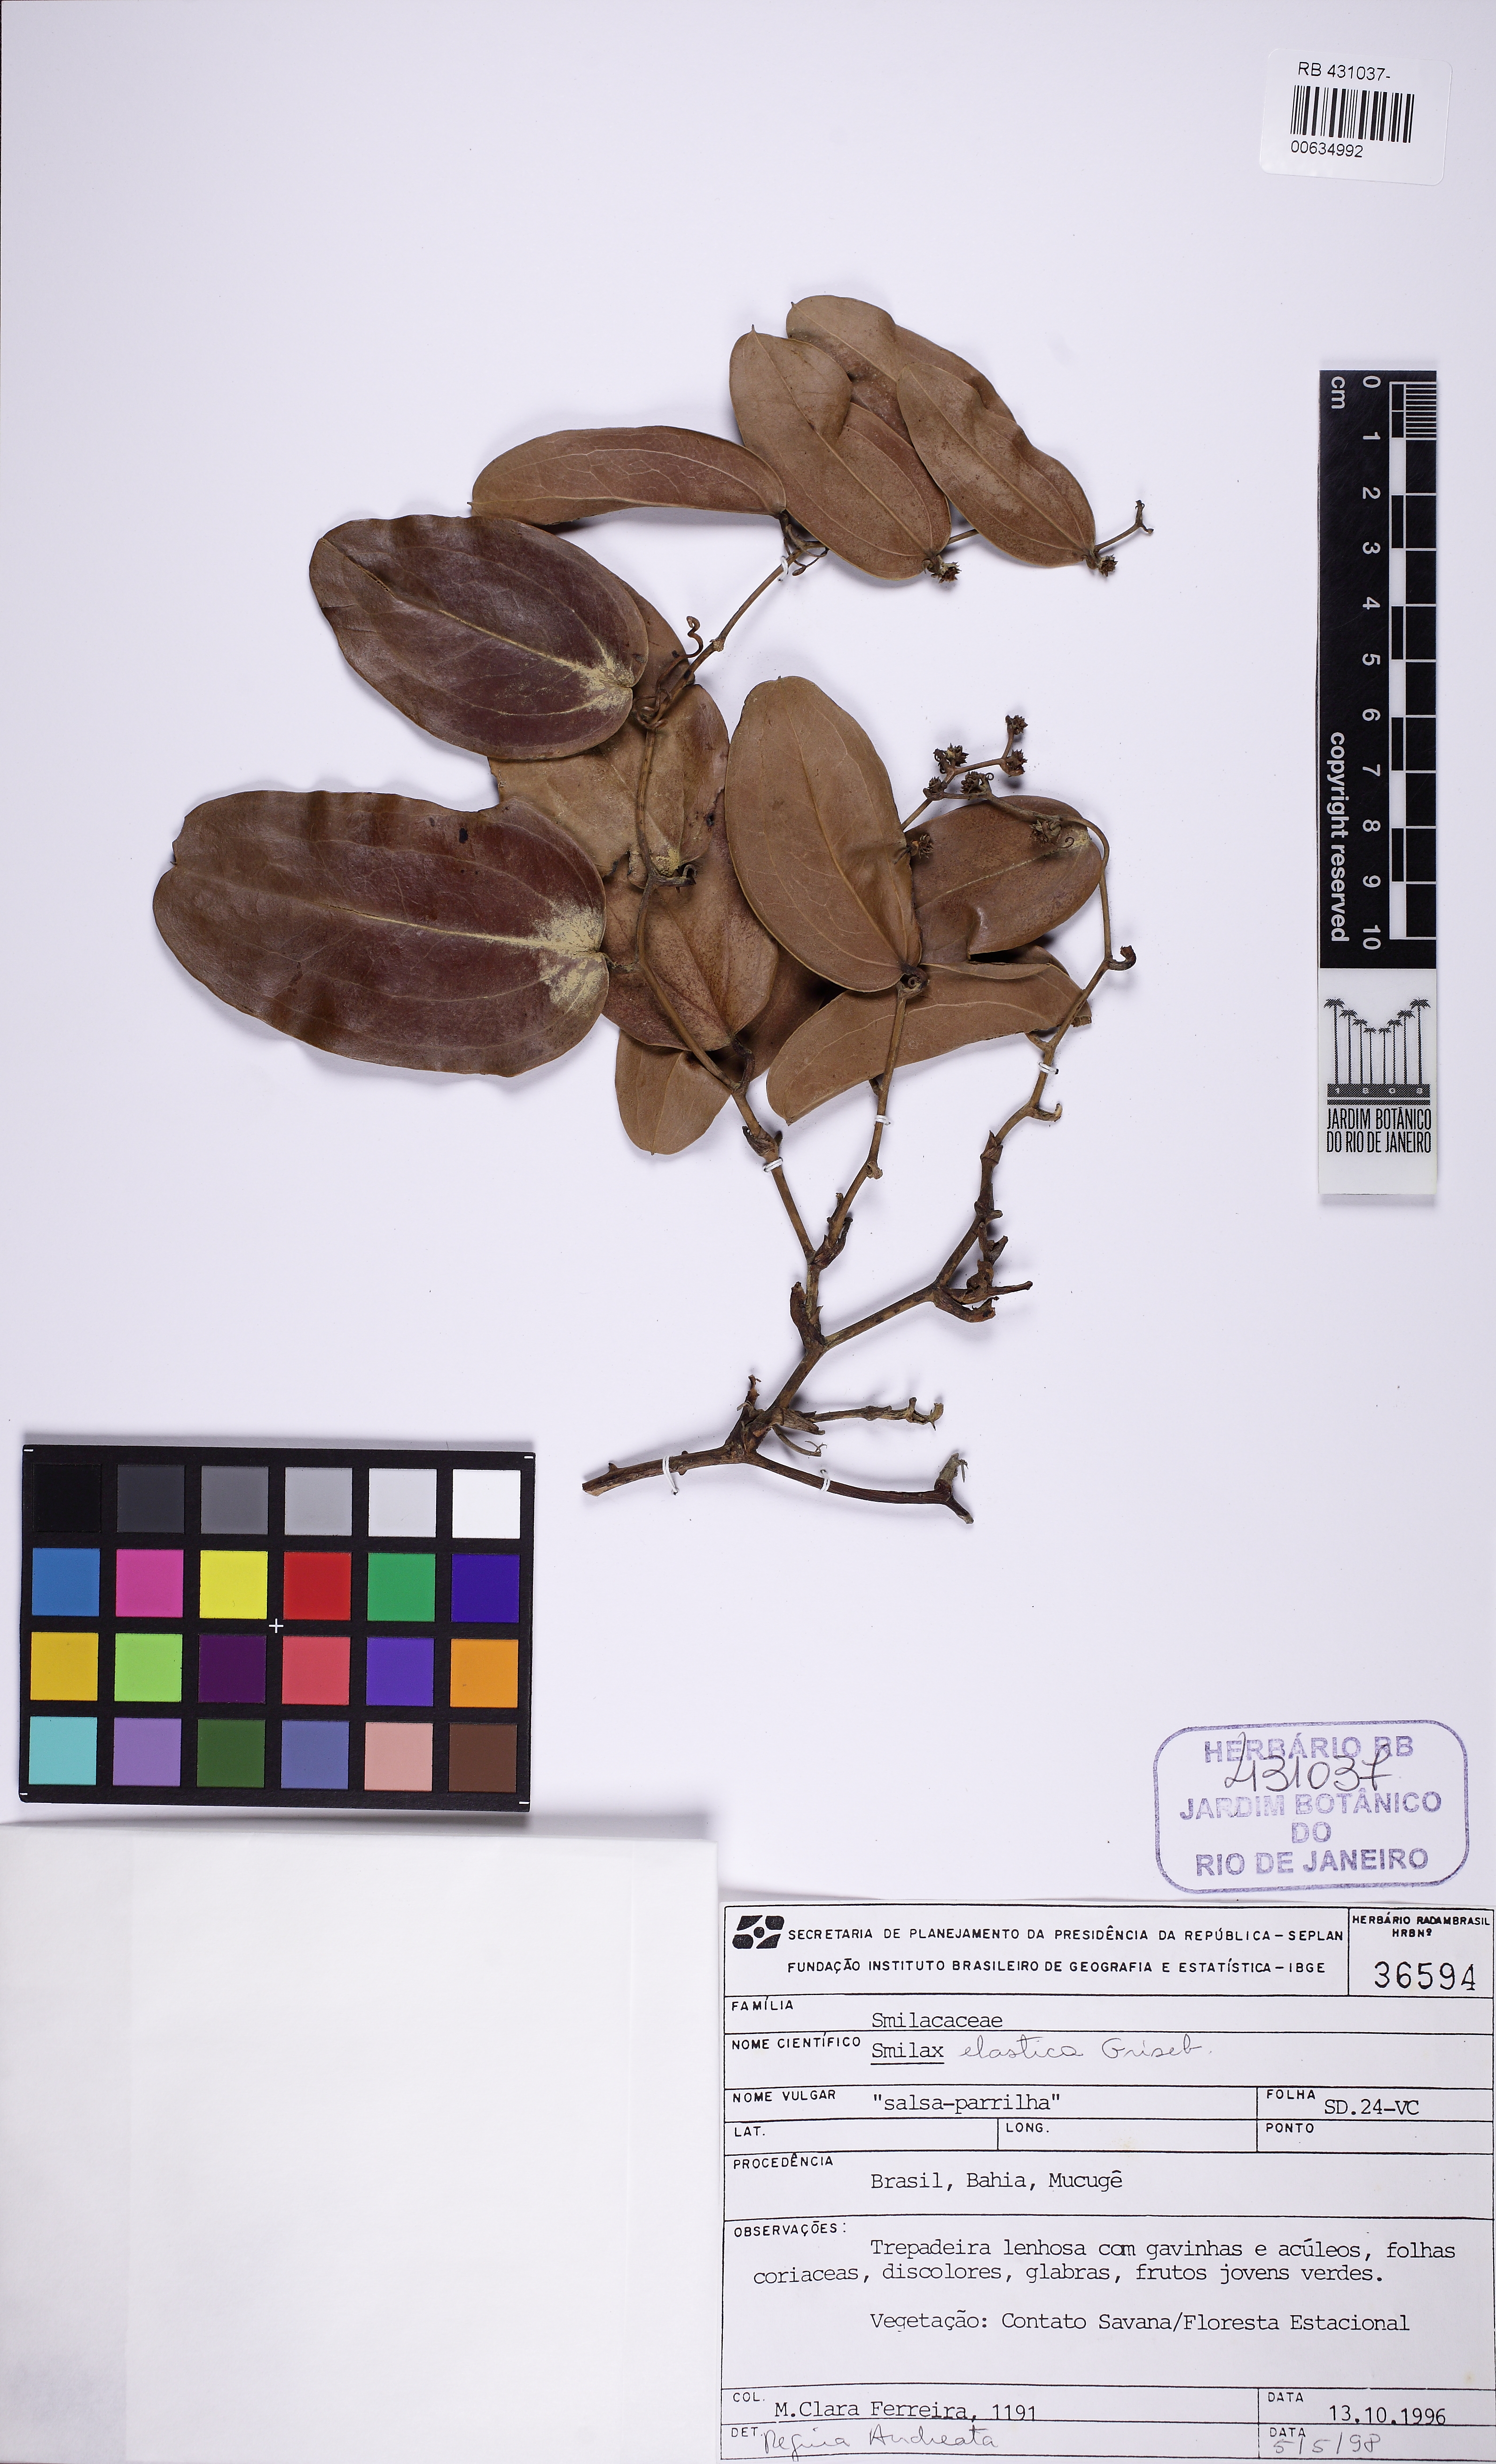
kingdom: Plantae
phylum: Tracheophyta
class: Liliopsida
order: Liliales
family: Smilacaceae
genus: Smilax
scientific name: Smilax elastica
